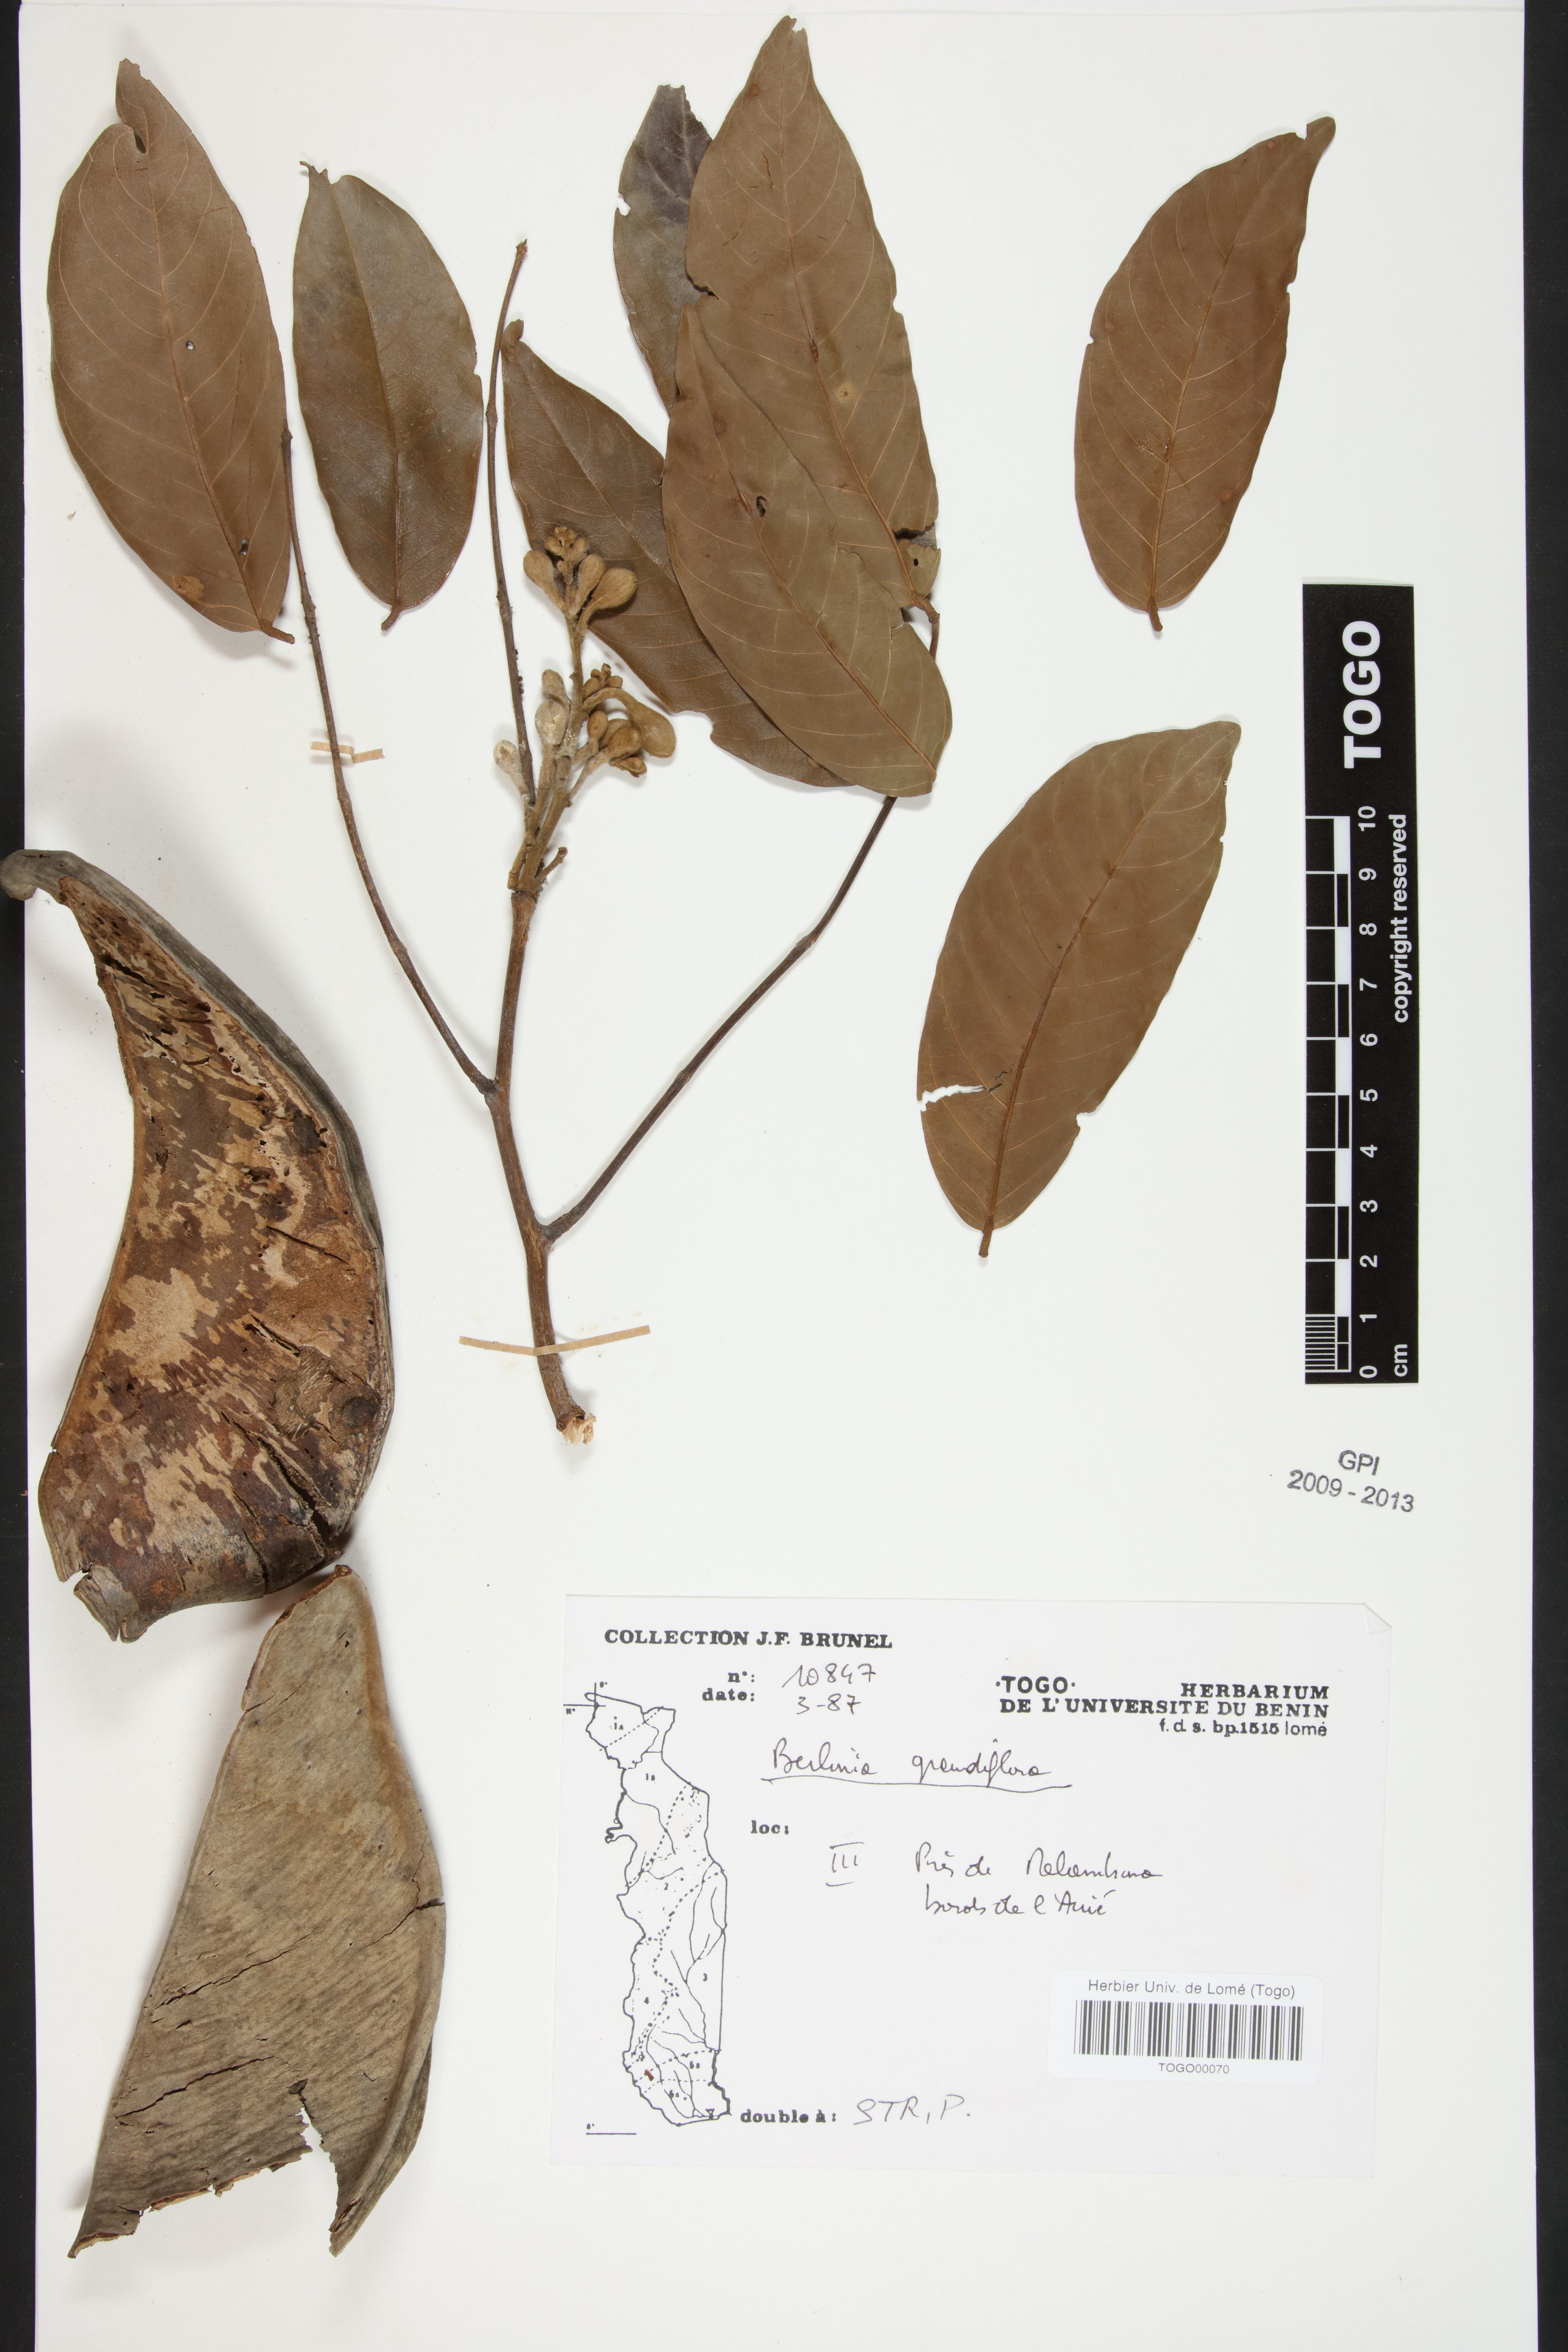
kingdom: Plantae
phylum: Tracheophyta
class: Magnoliopsida
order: Fabales
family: Fabaceae
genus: Berlinia
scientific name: Berlinia grandiflora
